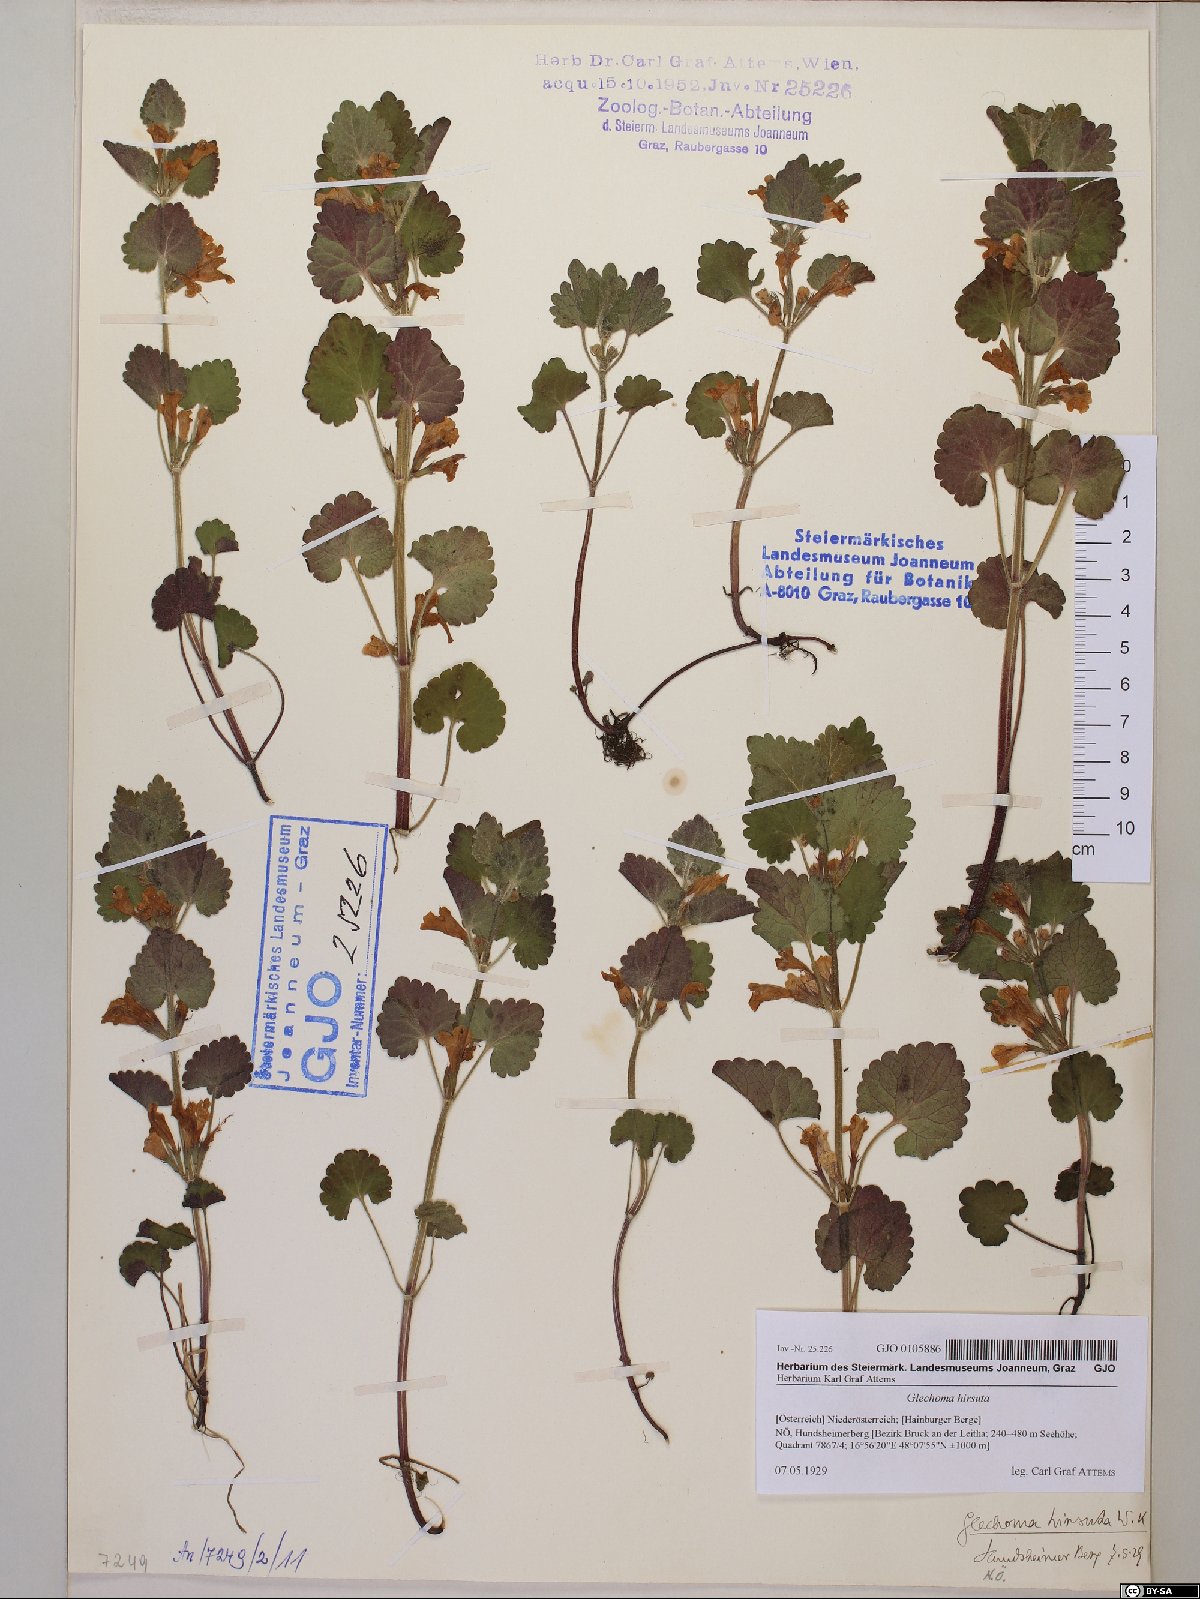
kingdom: Plantae
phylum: Tracheophyta
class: Magnoliopsida
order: Lamiales
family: Lamiaceae
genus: Glechoma
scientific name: Glechoma hirsuta
